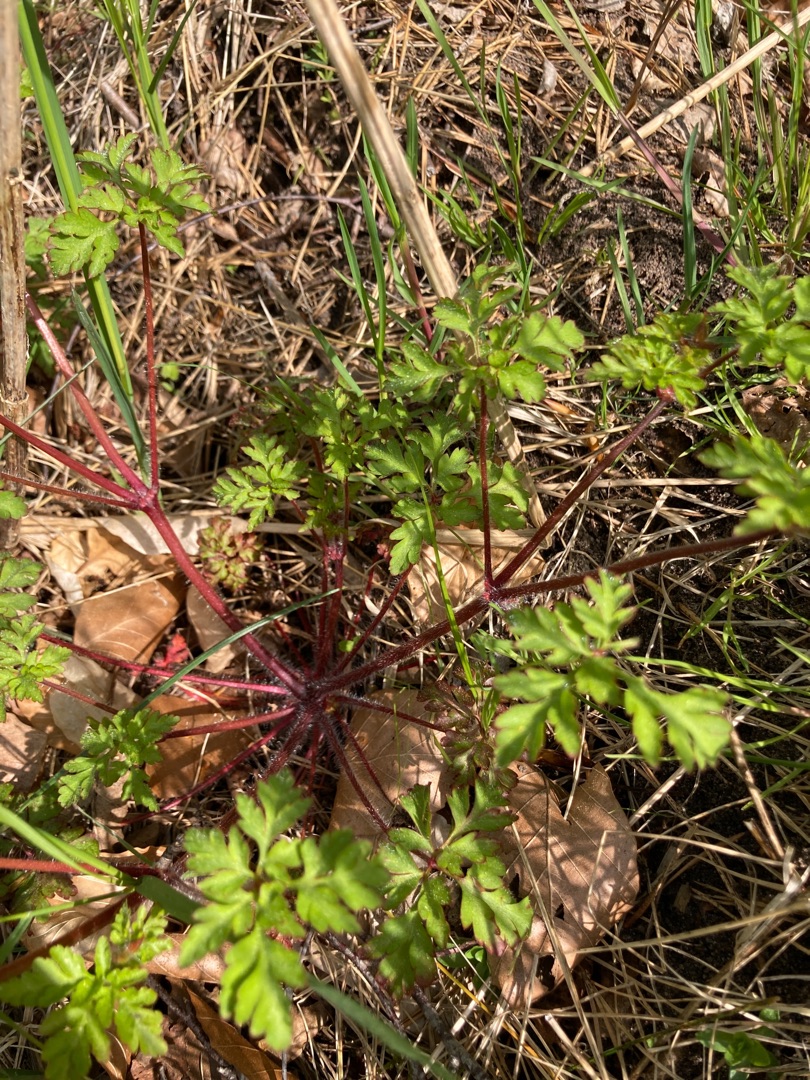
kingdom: Plantae
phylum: Tracheophyta
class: Magnoliopsida
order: Geraniales
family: Geraniaceae
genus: Geranium
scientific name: Geranium robertianum
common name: Stinkende storkenæb
